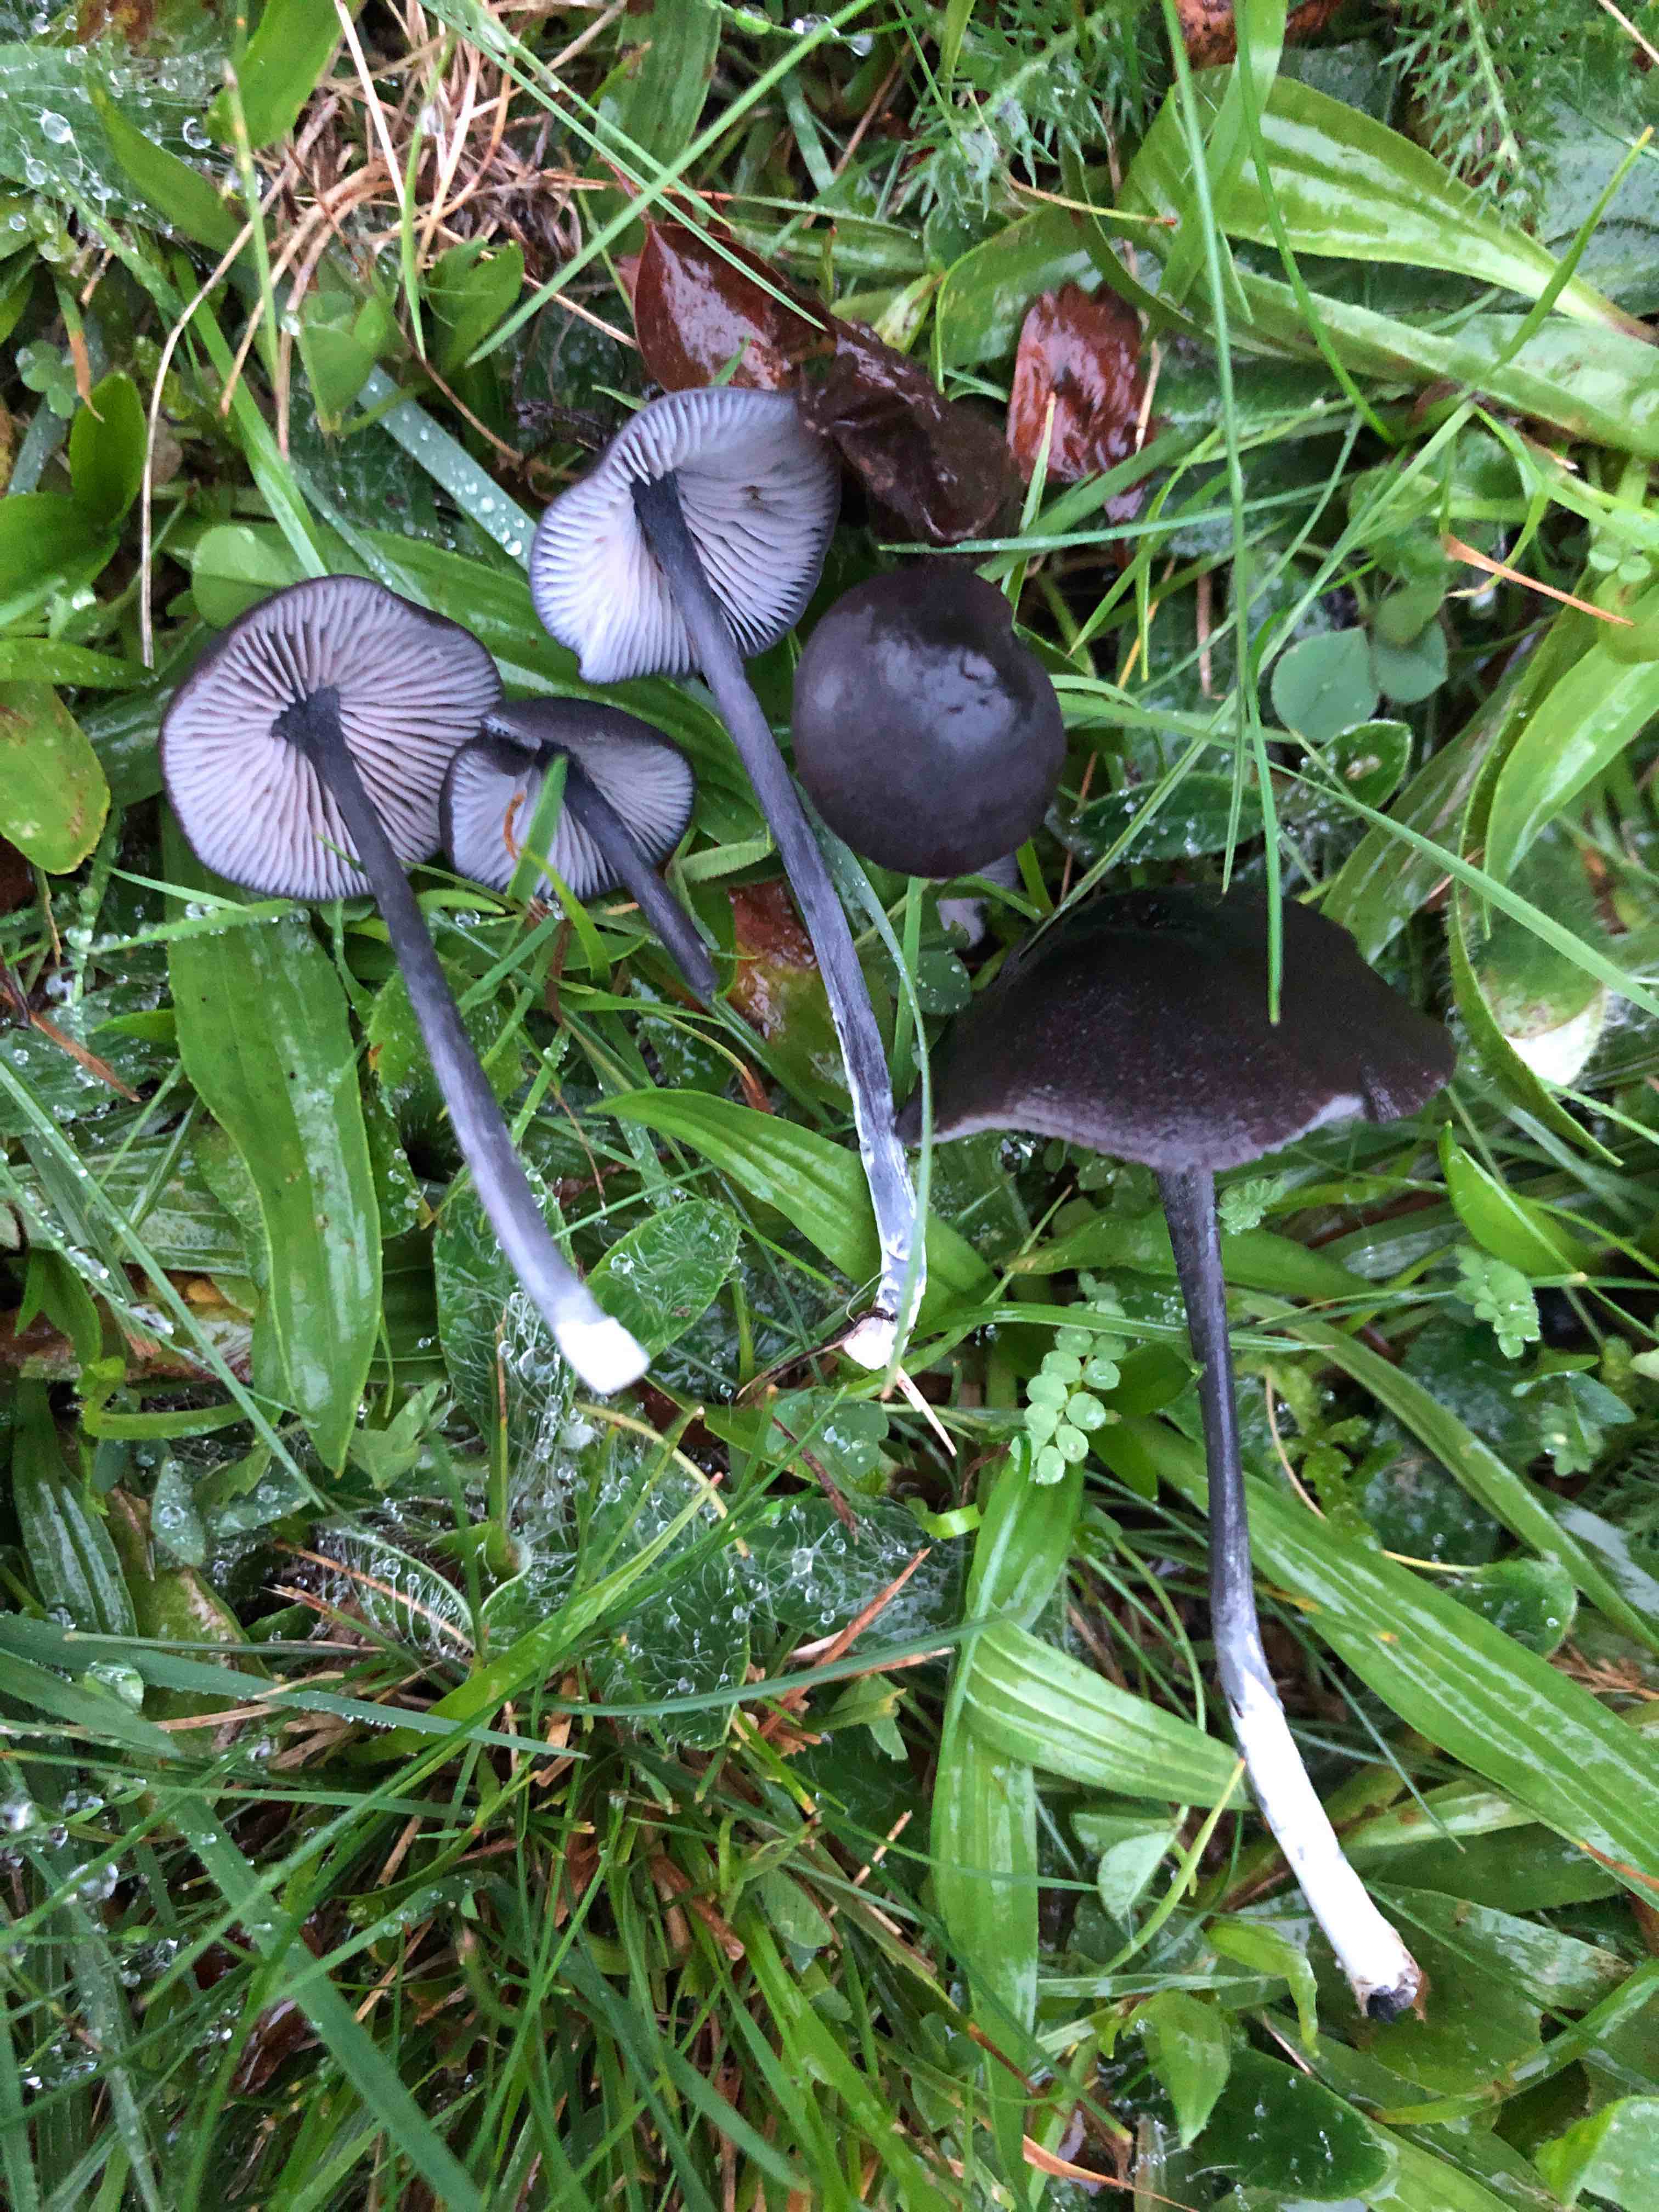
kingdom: Fungi
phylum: Basidiomycota
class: Agaricomycetes
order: Agaricales
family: Entolomataceae
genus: Entoloma
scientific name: Entoloma chalybeum
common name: blåbladet rødblad
